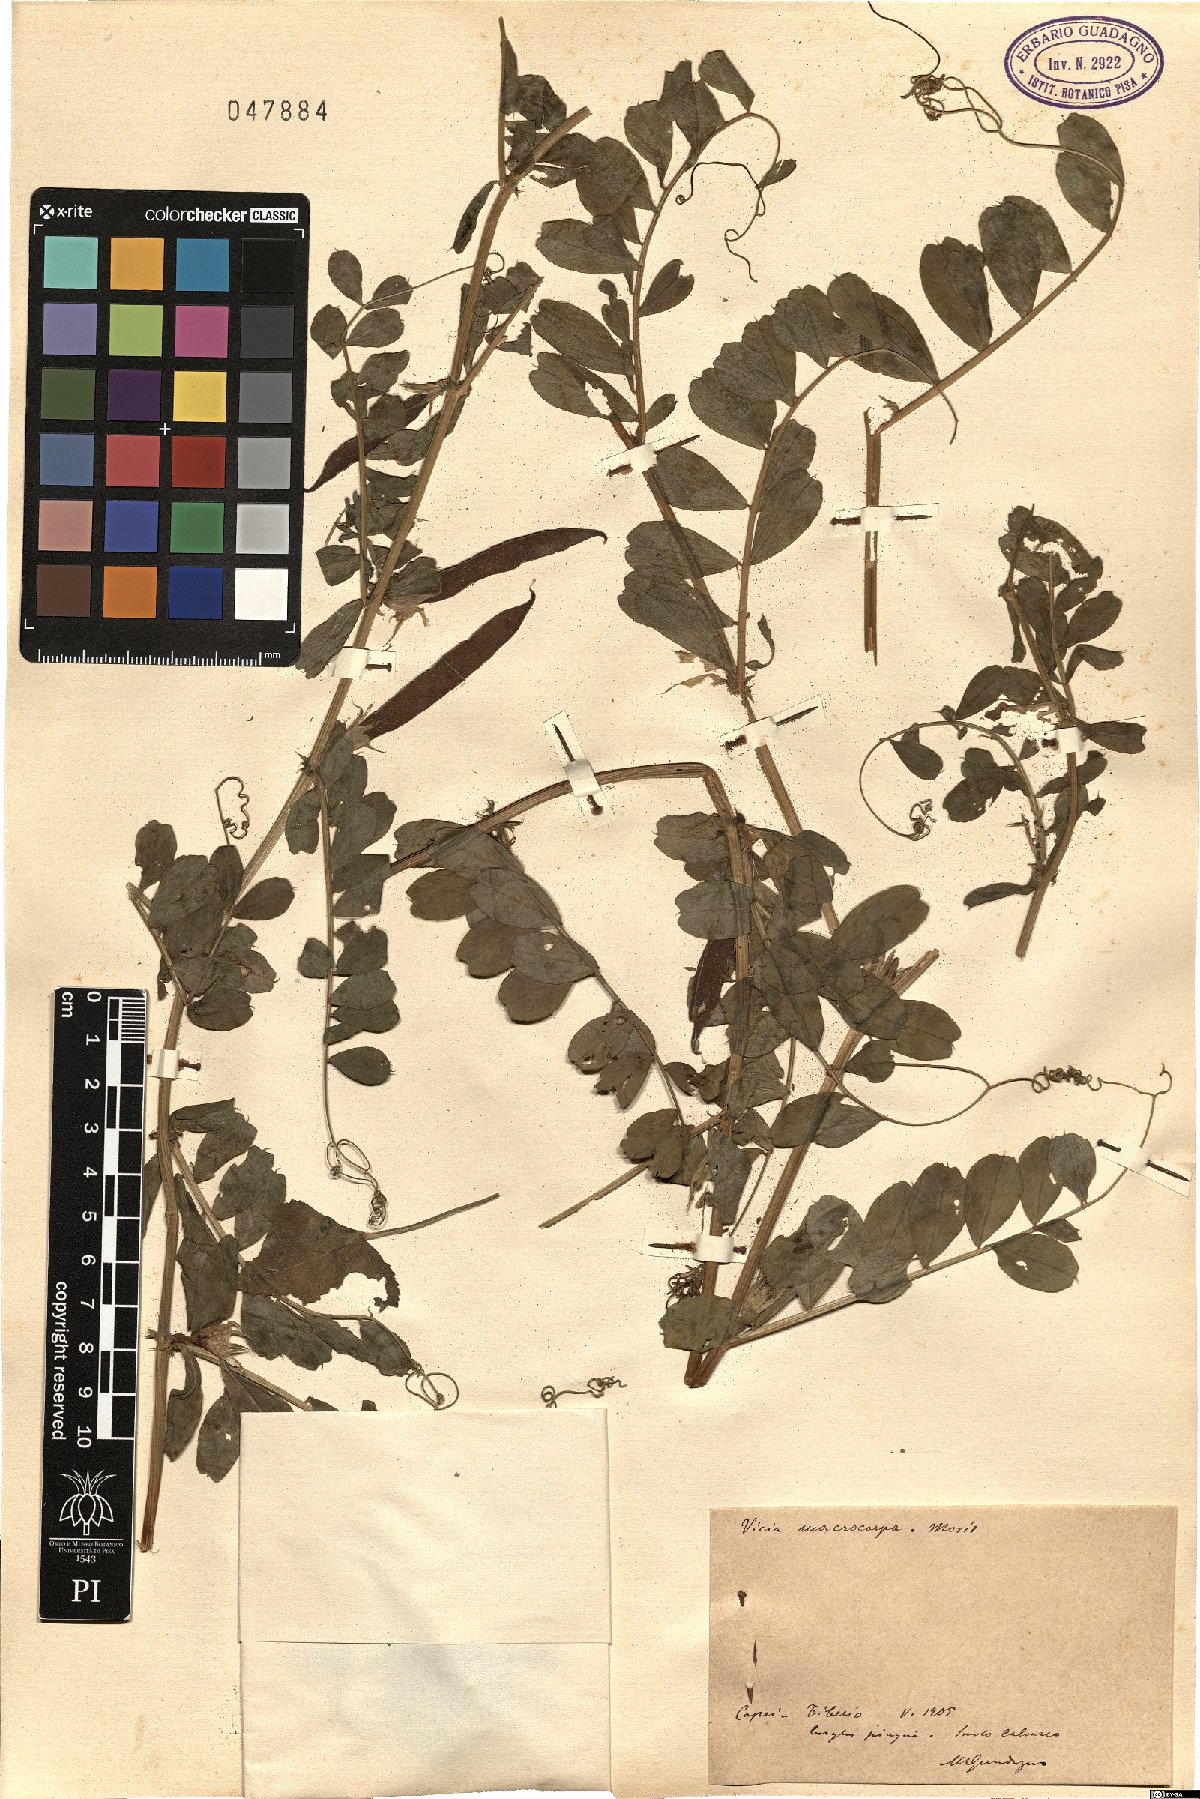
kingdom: Plantae
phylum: Tracheophyta
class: Magnoliopsida
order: Fabales
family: Fabaceae
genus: Vicia
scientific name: Vicia sativa
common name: Garden vetch
